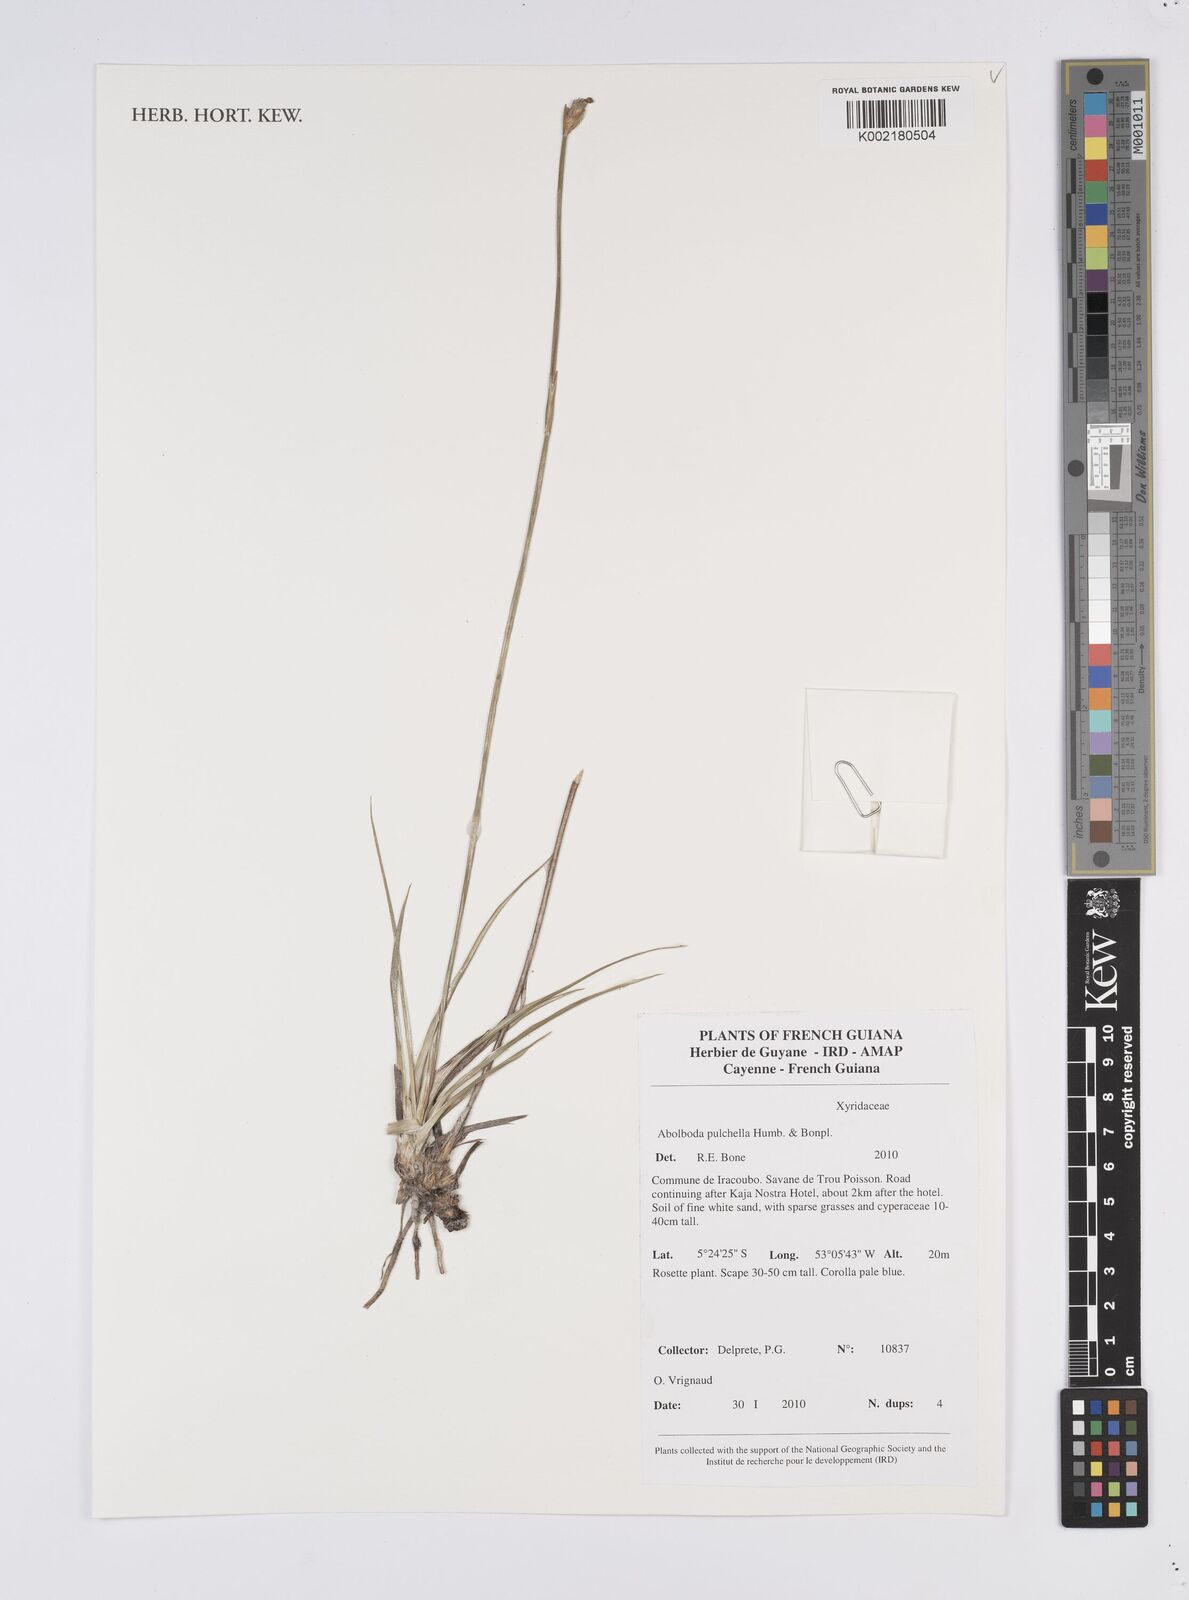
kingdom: Plantae
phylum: Tracheophyta
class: Liliopsida
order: Poales
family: Xyridaceae
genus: Abolboda
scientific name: Abolboda pulchella
